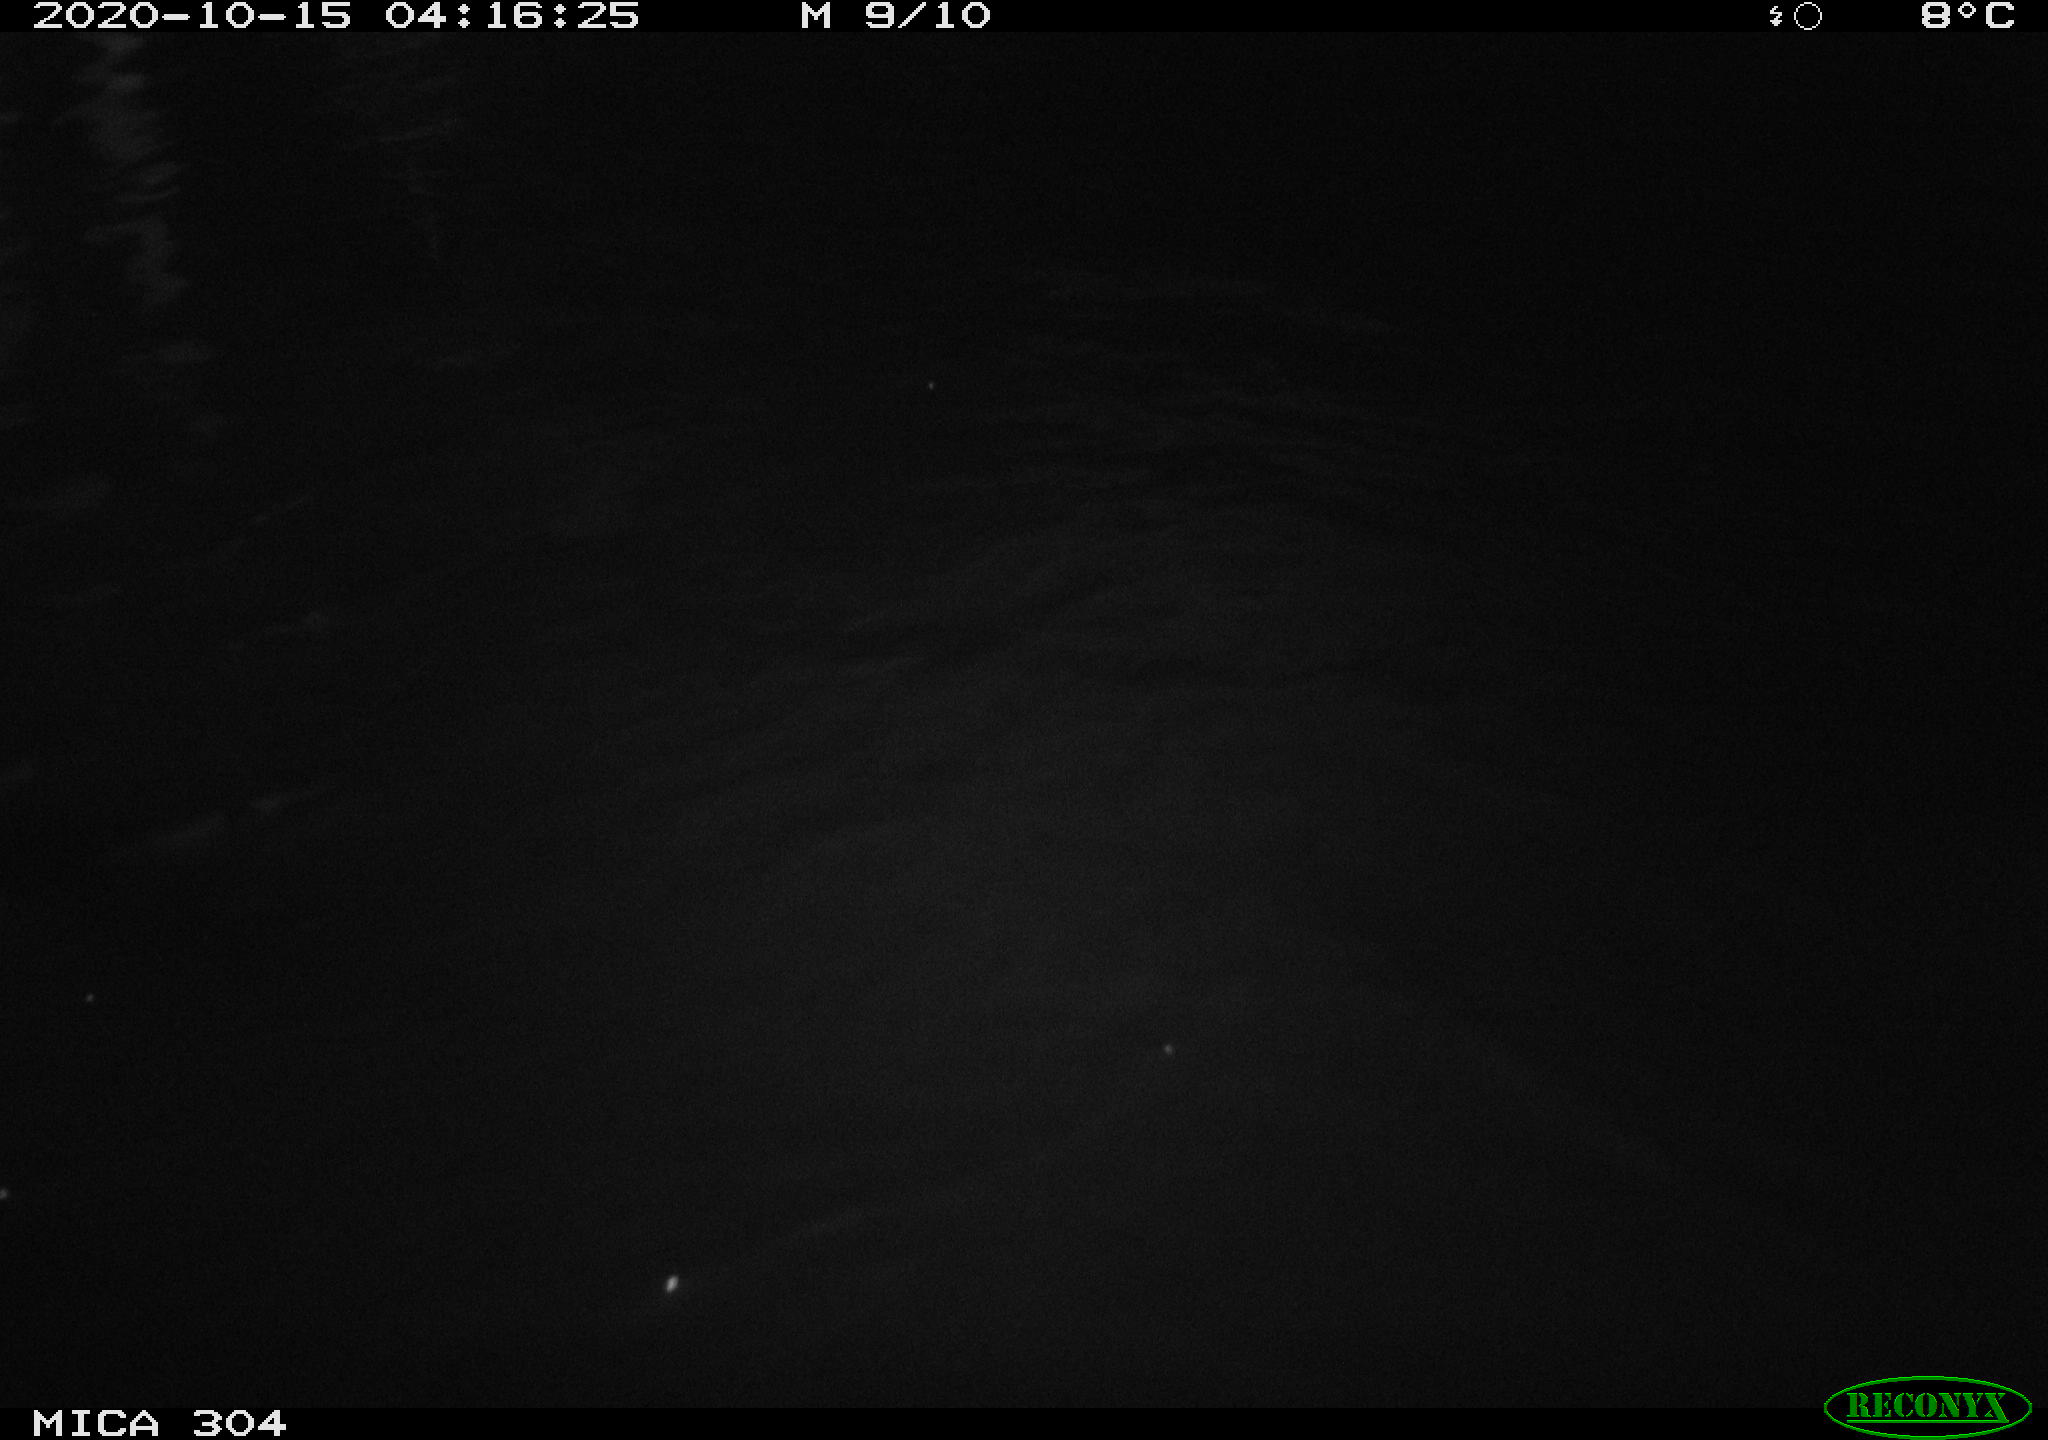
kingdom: Animalia
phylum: Chordata
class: Mammalia
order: Rodentia
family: Cricetidae
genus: Ondatra
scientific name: Ondatra zibethicus
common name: Muskrat
